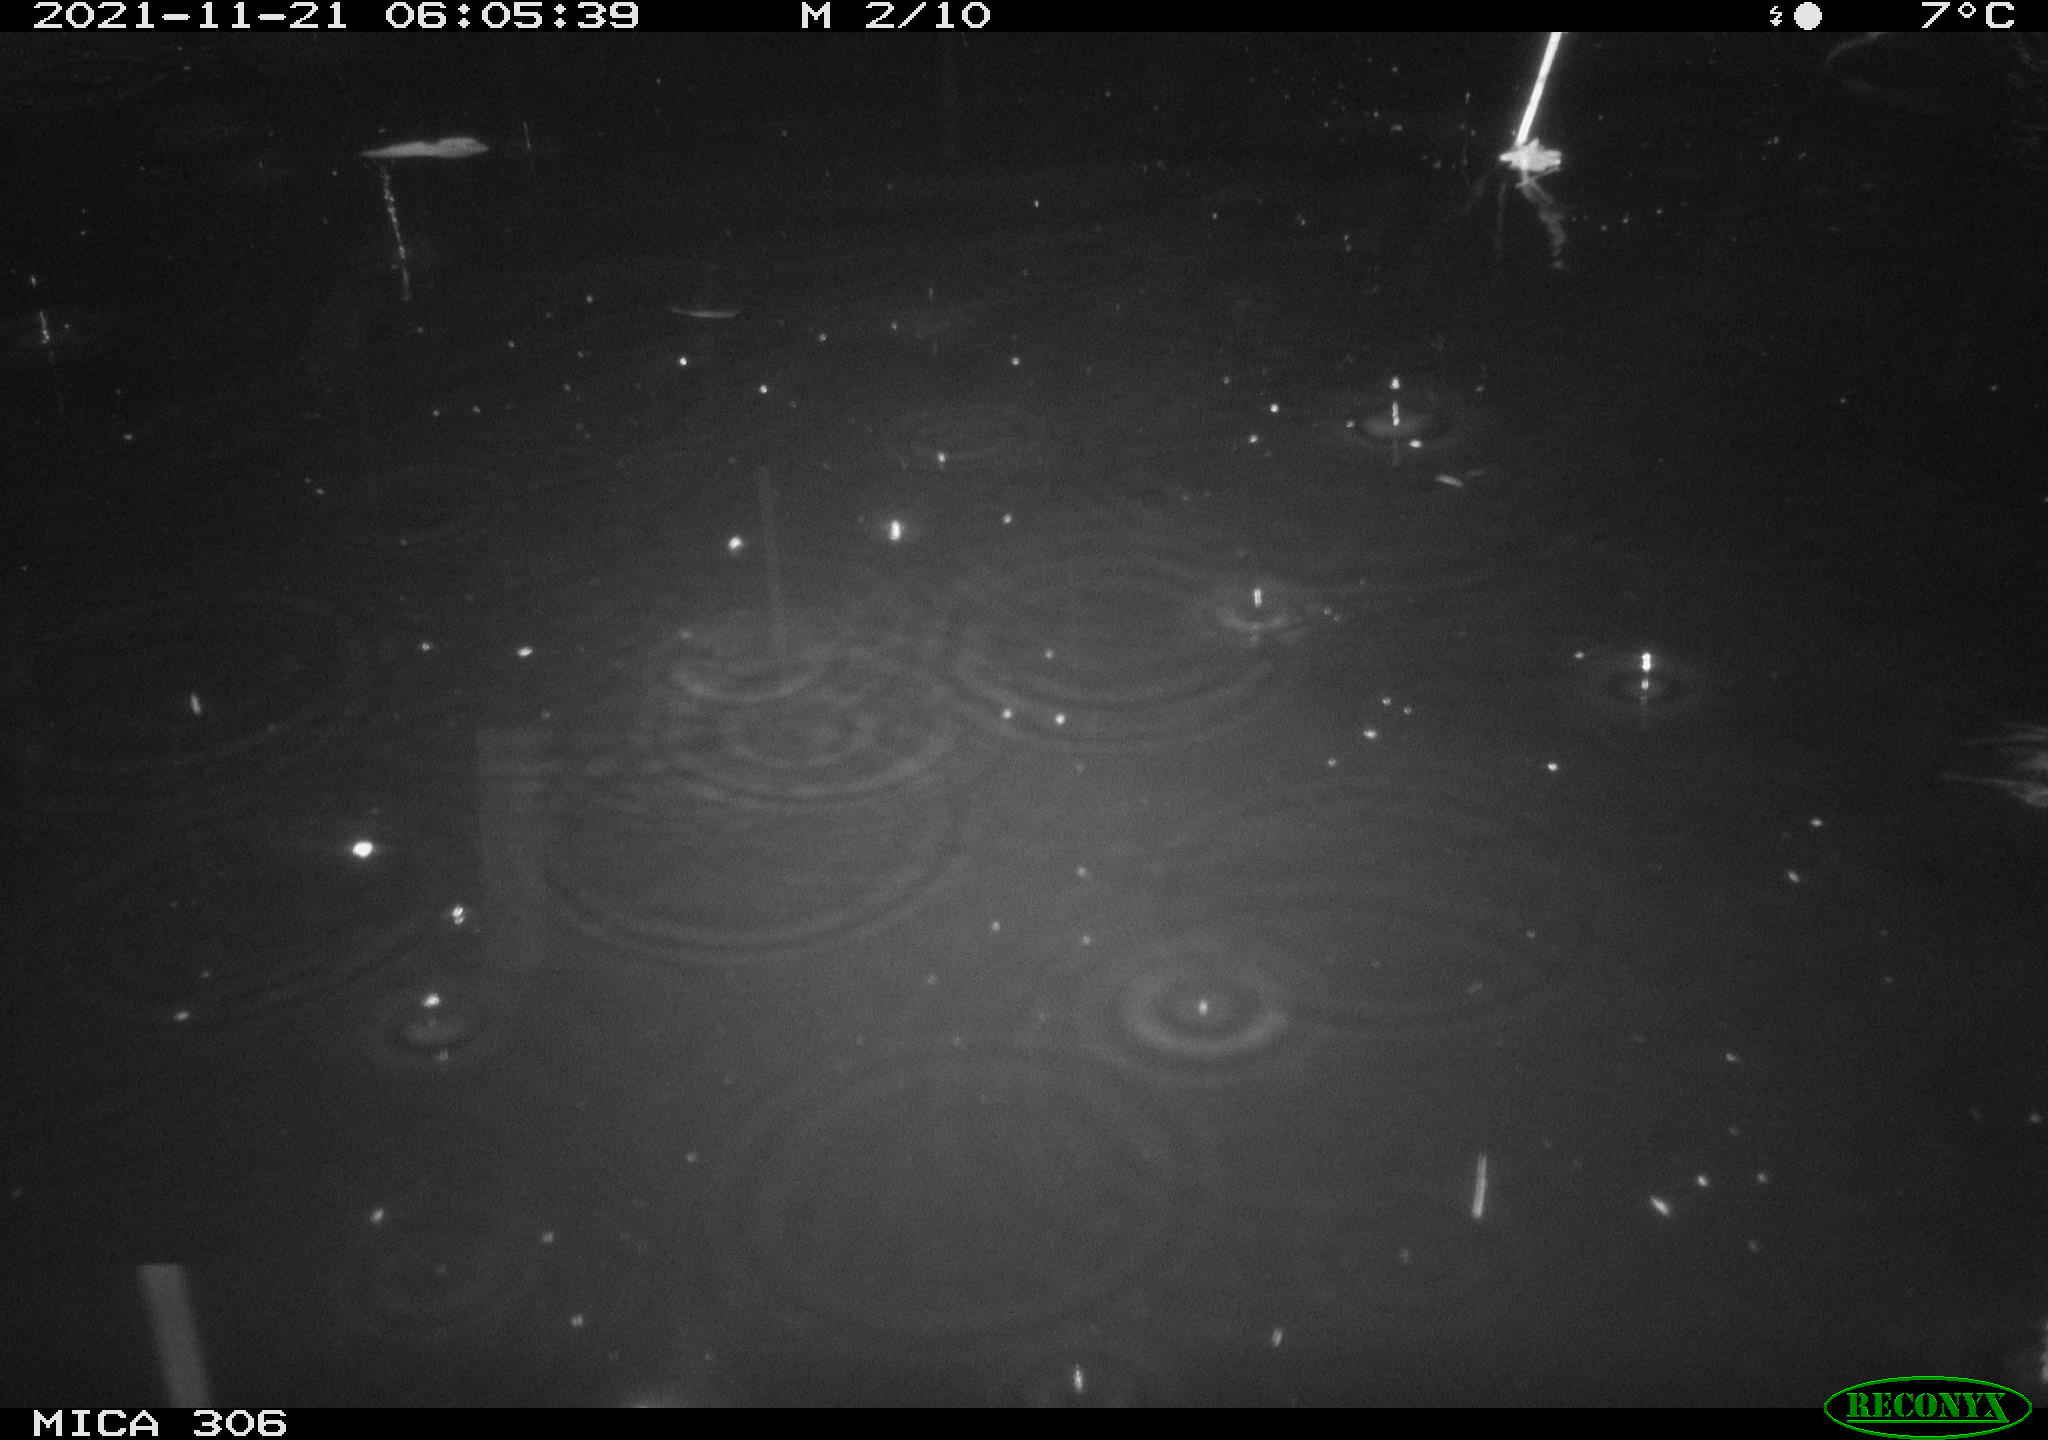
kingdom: Animalia
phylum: Chordata
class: Mammalia
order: Rodentia
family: Muridae
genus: Rattus
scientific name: Rattus norvegicus
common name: Brown rat
